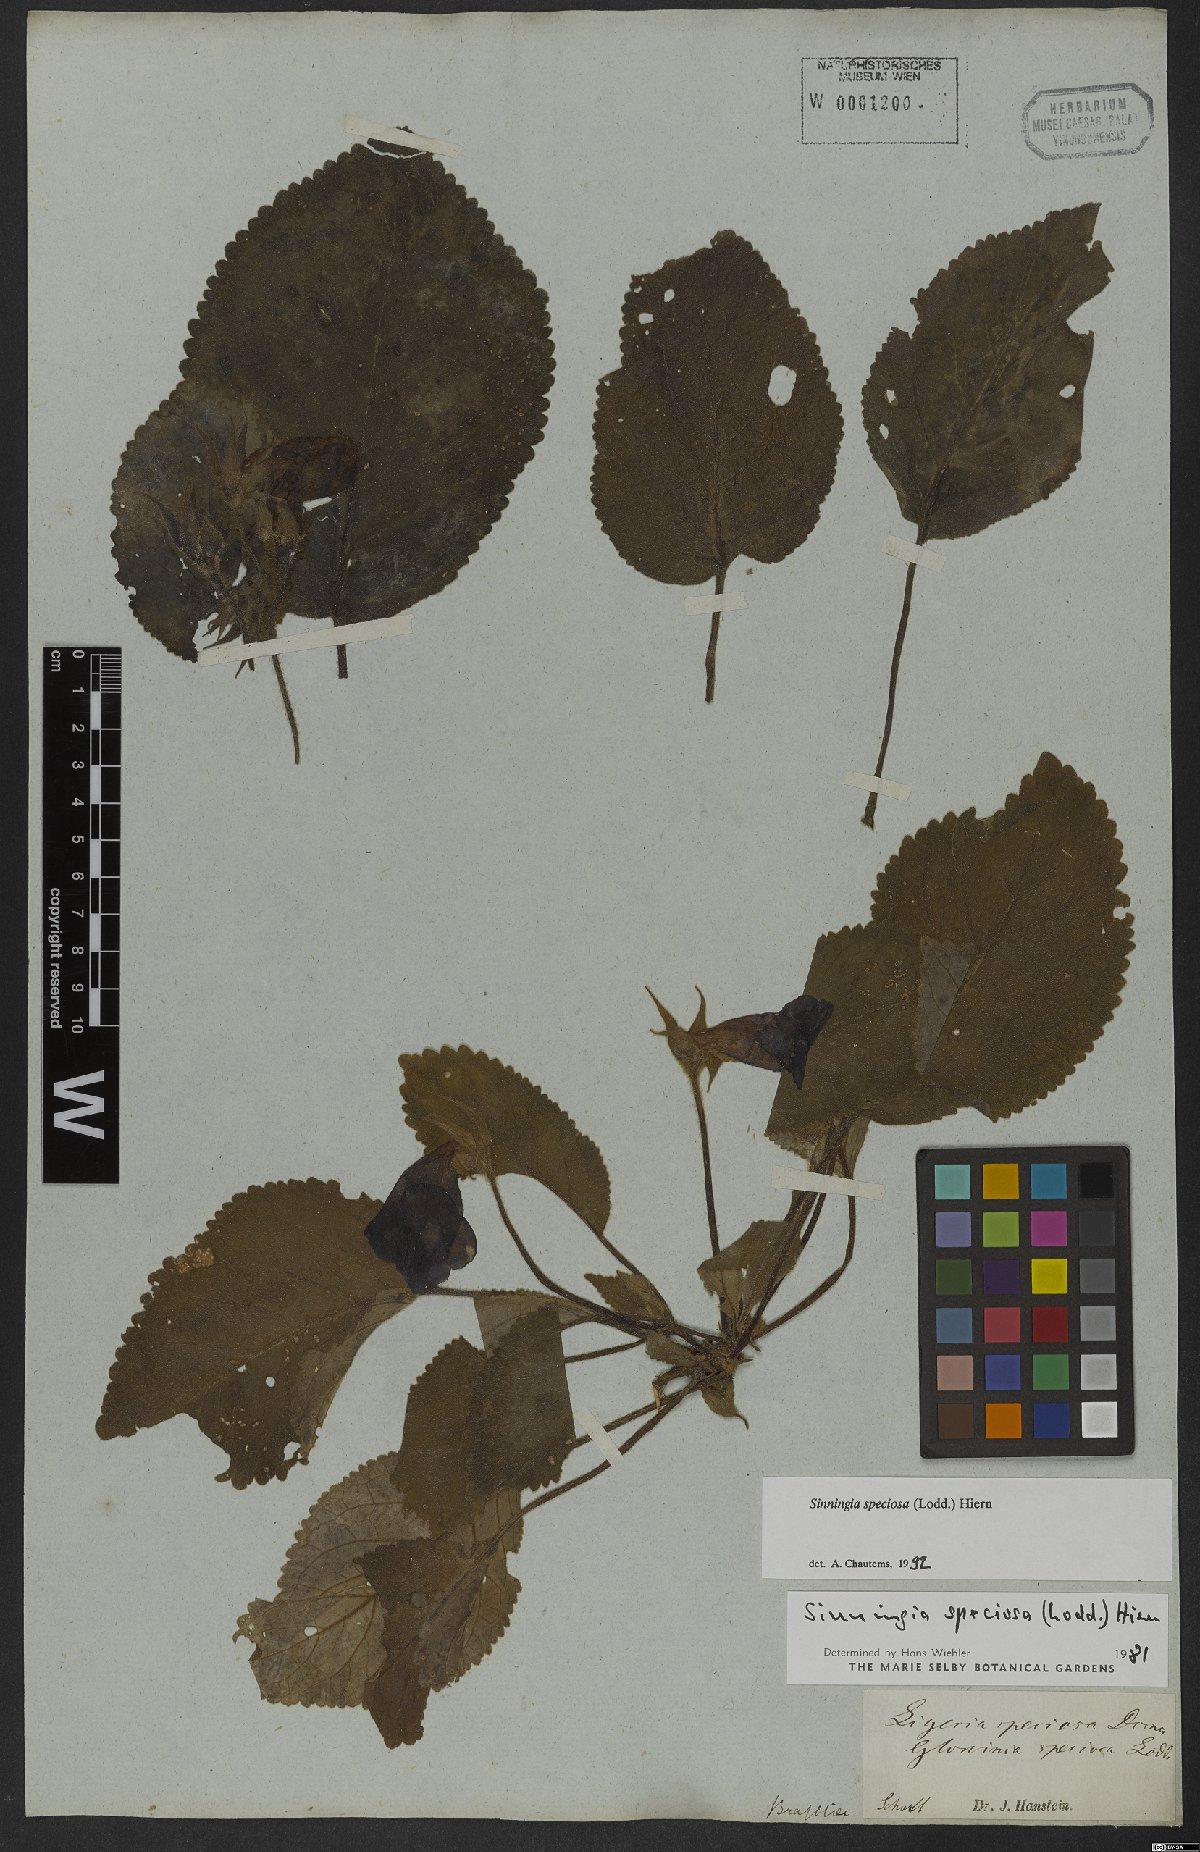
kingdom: Plantae
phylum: Tracheophyta
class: Magnoliopsida
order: Lamiales
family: Gesneriaceae
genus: Sinningia
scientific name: Sinningia speciosa
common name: Brazilian gloxinia
